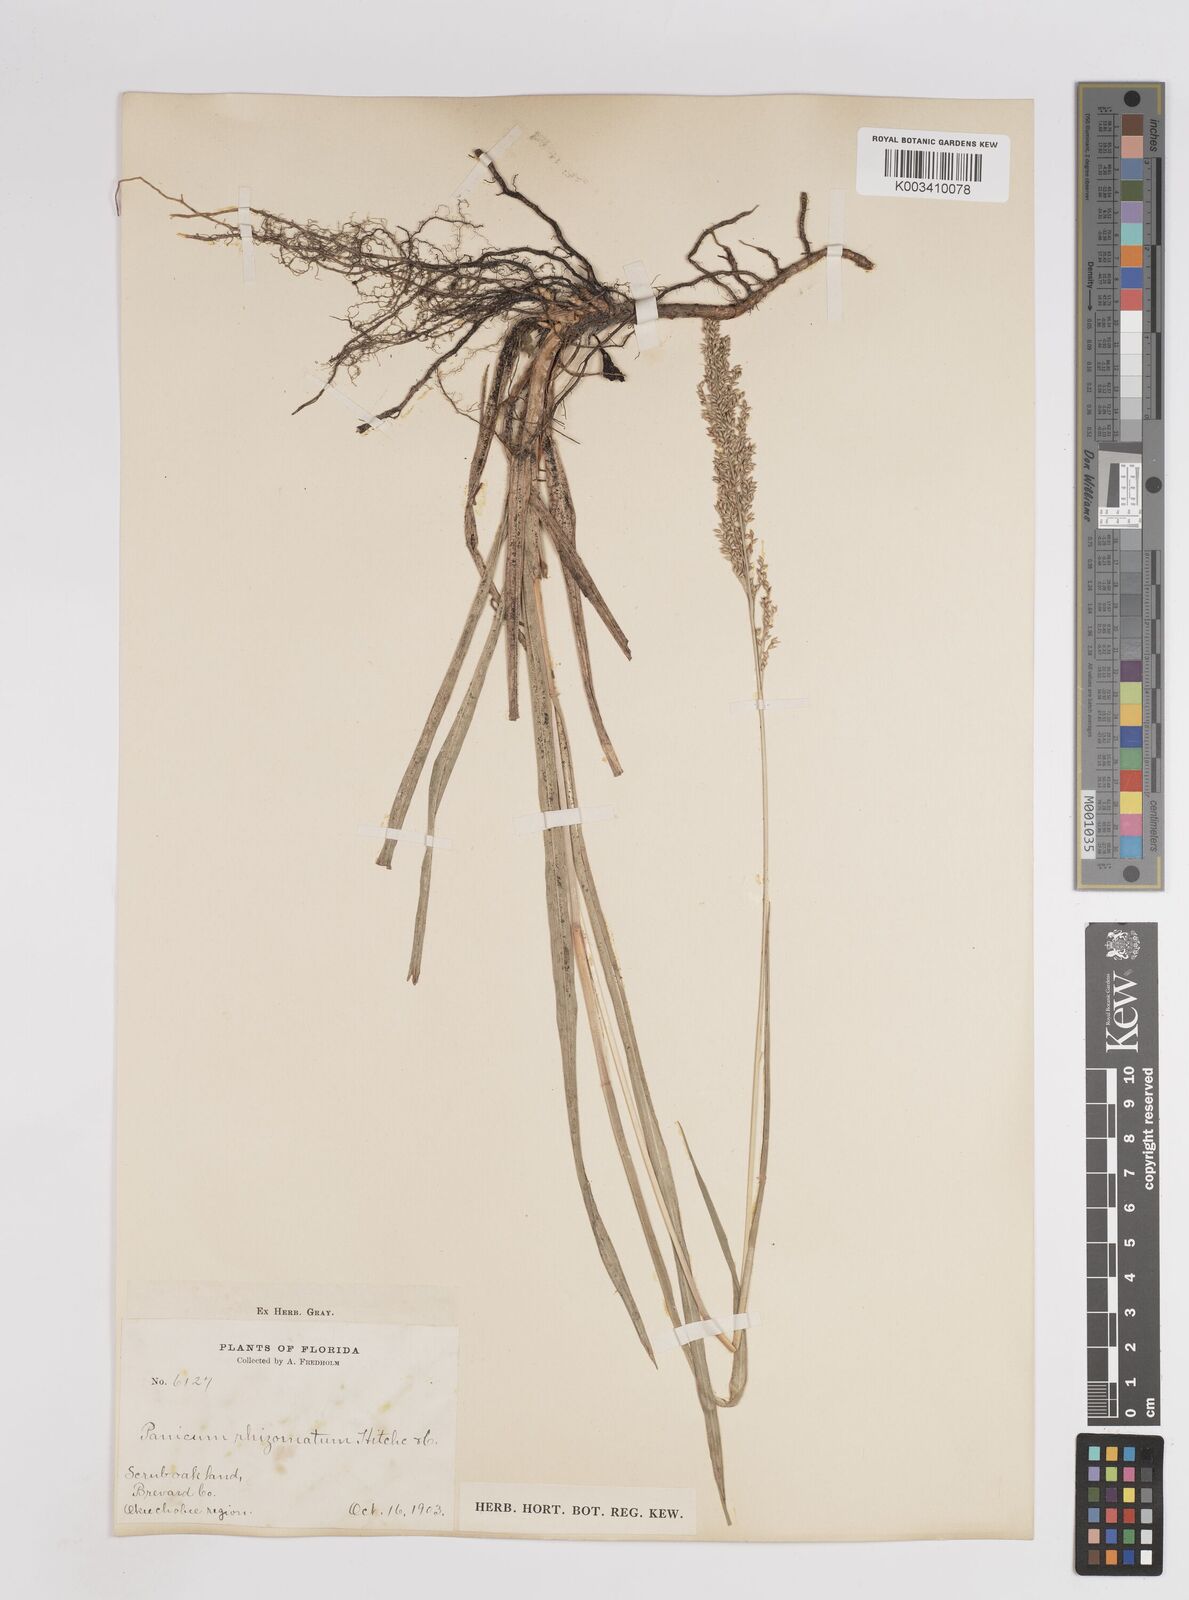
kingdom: Plantae
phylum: Tracheophyta
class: Liliopsida
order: Poales
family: Poaceae
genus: Coleataenia
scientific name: Coleataenia anceps
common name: Beaked panic grass
